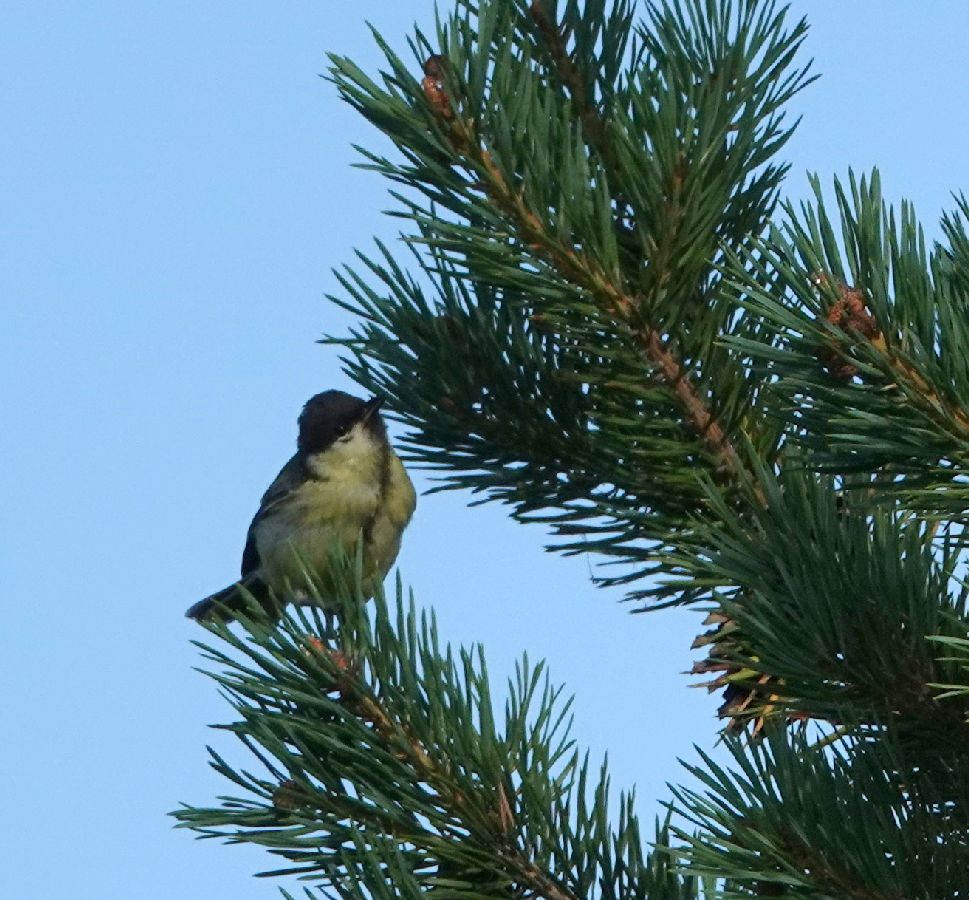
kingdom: Animalia
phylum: Chordata
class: Aves
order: Passeriformes
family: Paridae
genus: Parus
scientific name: Parus major
